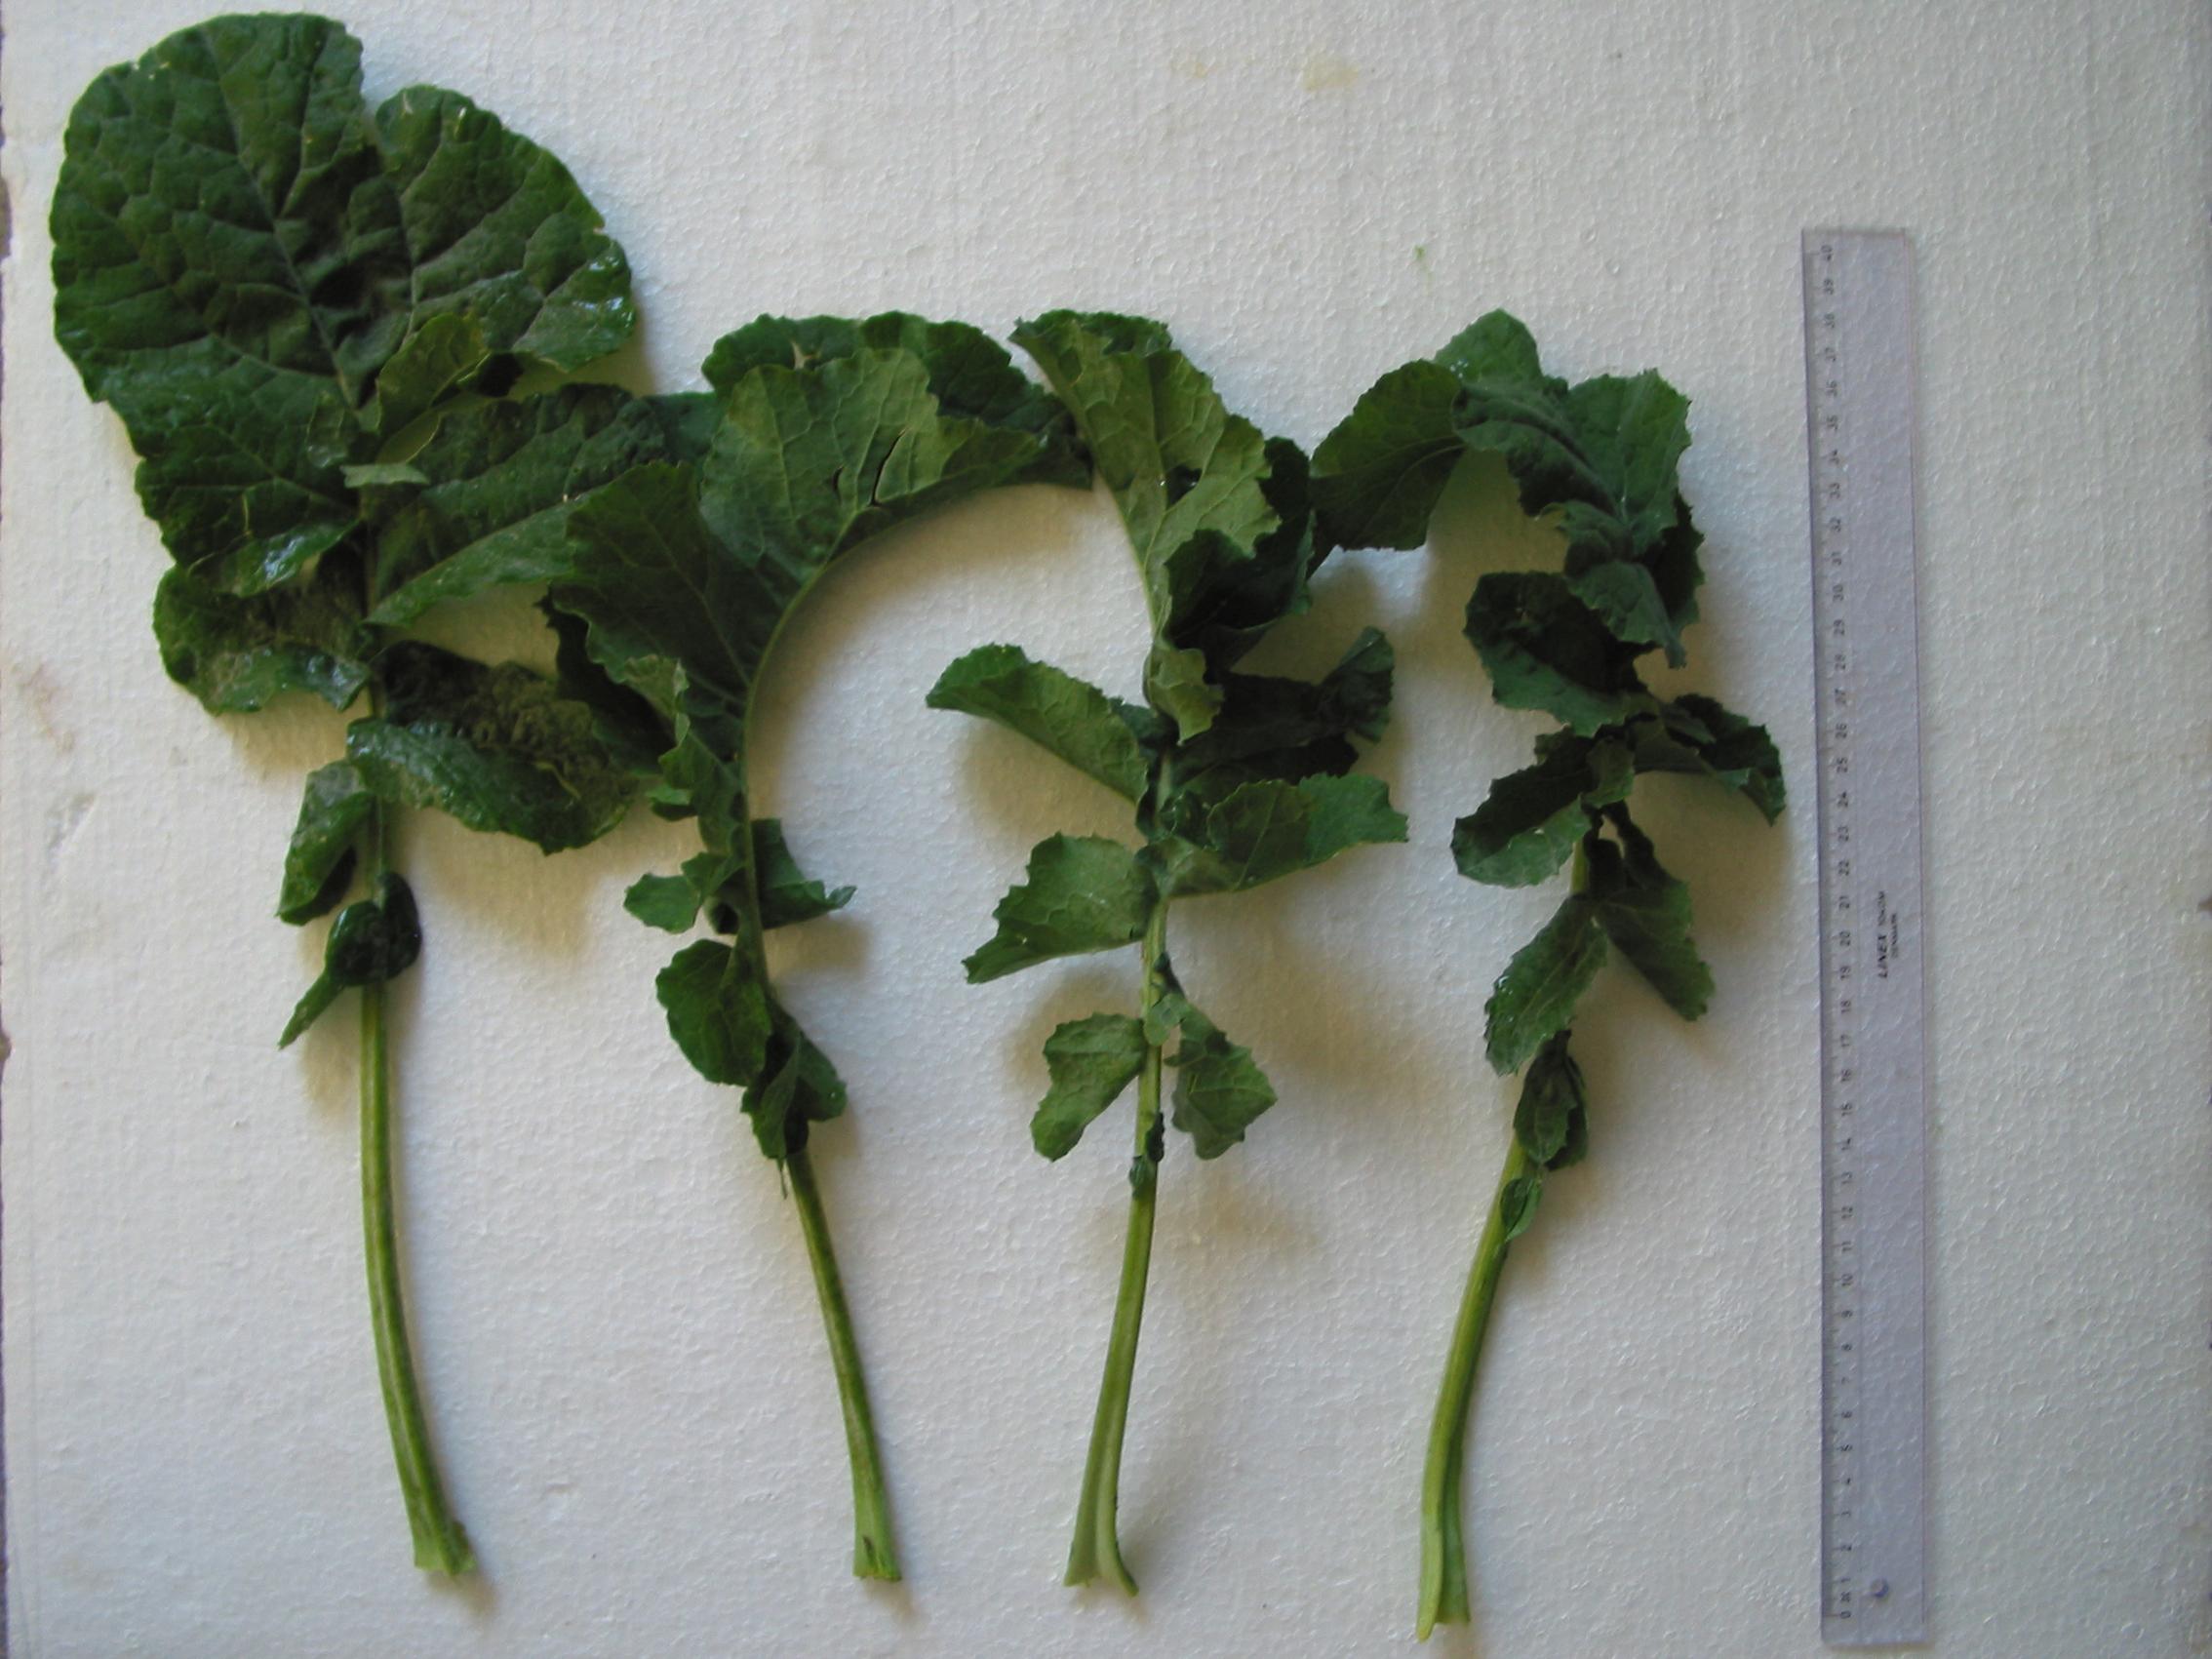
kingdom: Plantae
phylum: Tracheophyta
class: Magnoliopsida
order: Brassicales
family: Brassicaceae
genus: Brassica
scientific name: Brassica napus
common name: Rape
